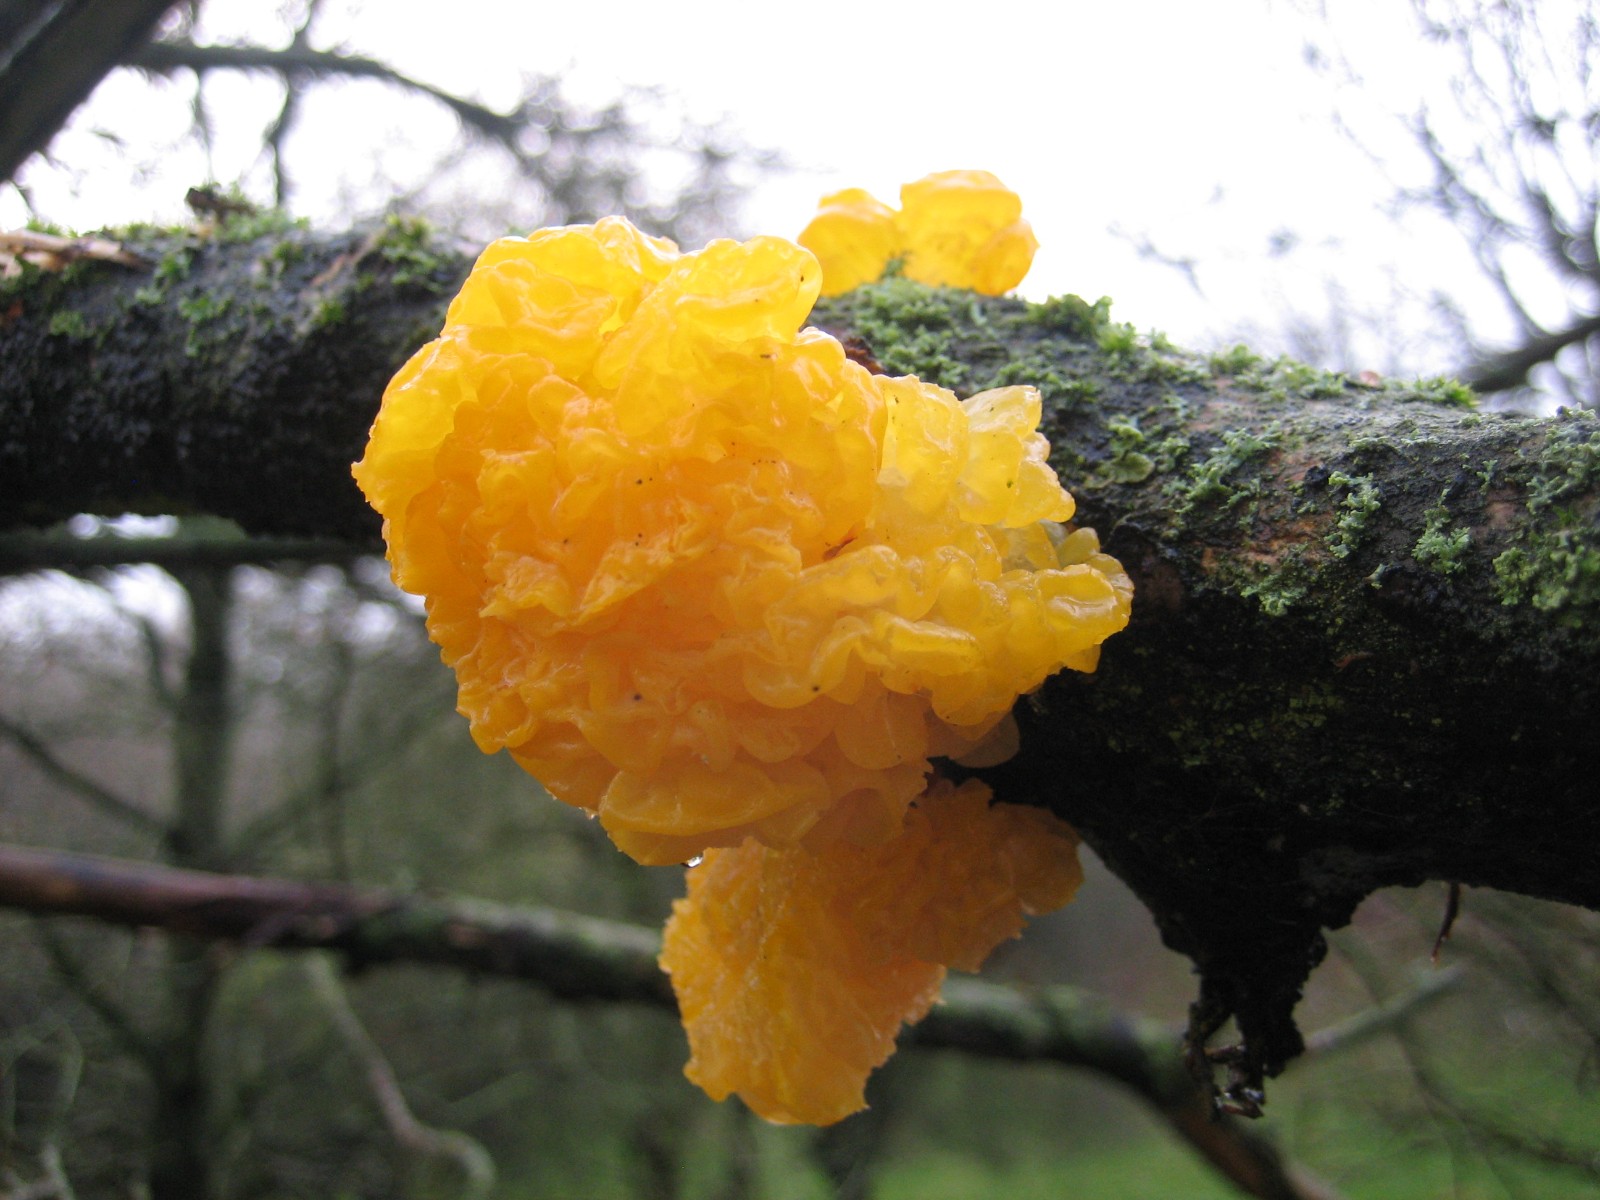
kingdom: Fungi
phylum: Basidiomycota
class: Tremellomycetes
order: Tremellales
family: Tremellaceae
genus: Tremella
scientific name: Tremella mesenterica
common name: gul bævresvamp
